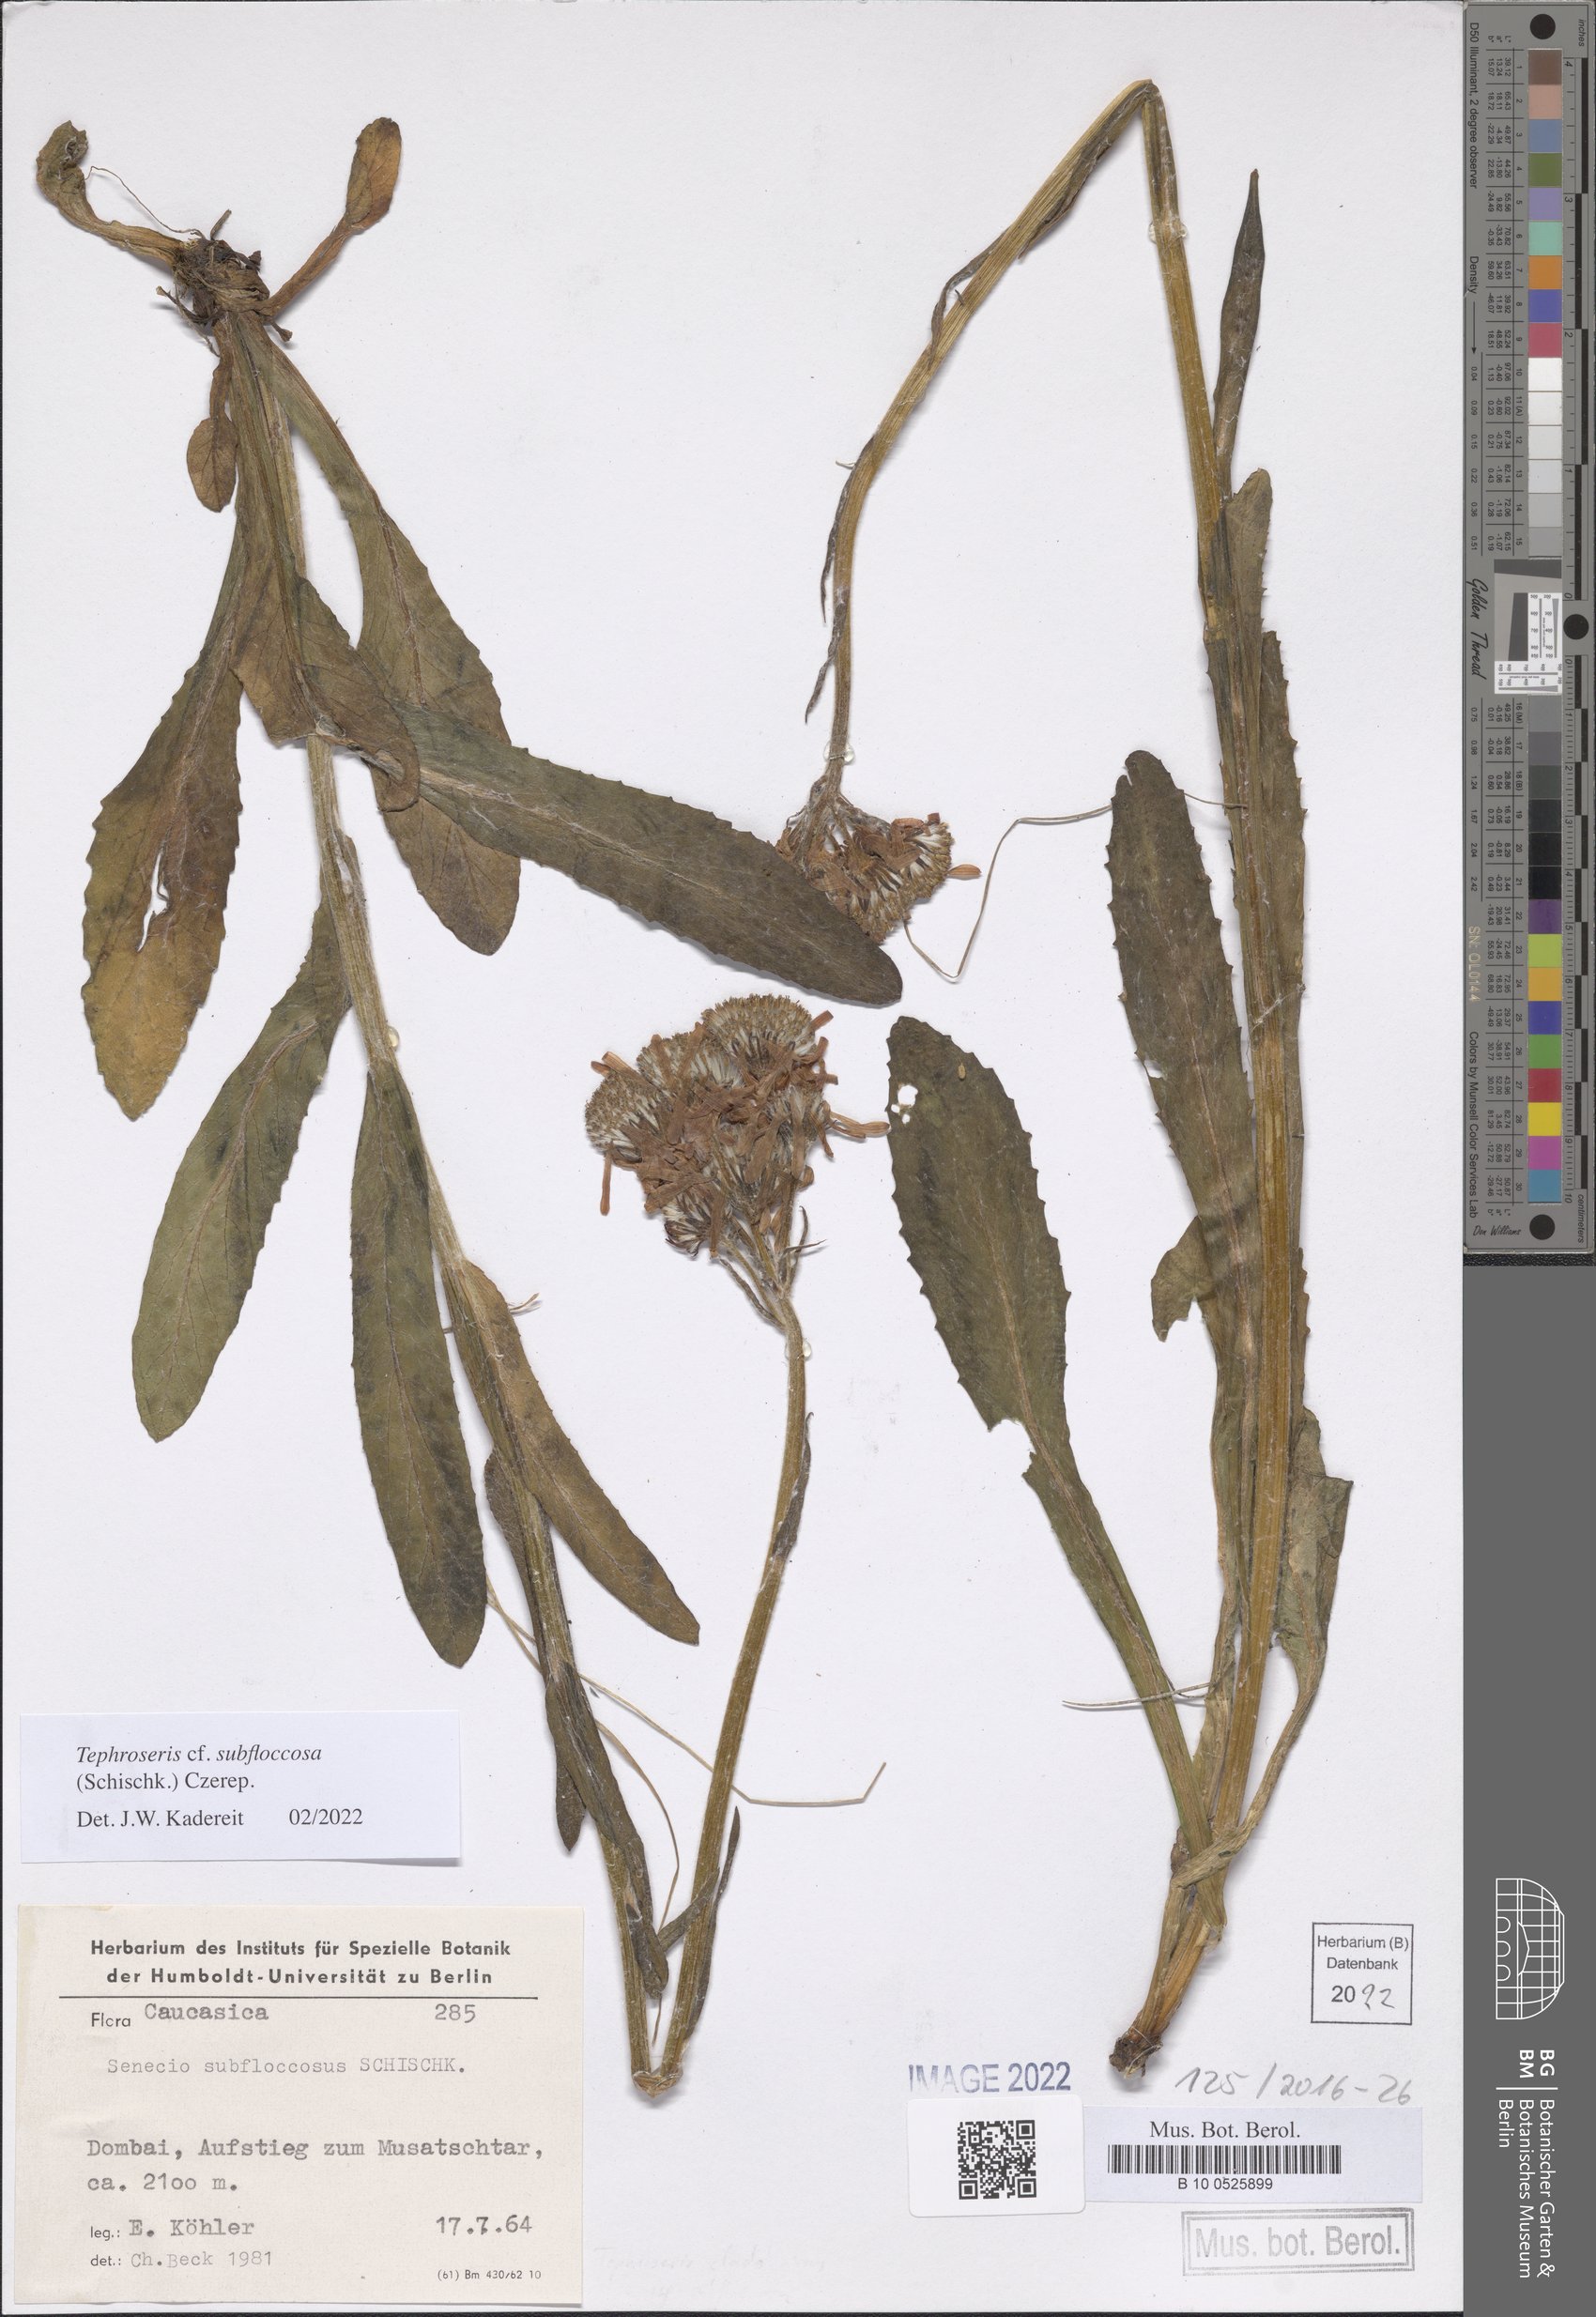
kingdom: Plantae
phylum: Tracheophyta
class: Magnoliopsida
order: Asterales
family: Asteraceae
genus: Tephroseris
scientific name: Tephroseris cladobotrys
